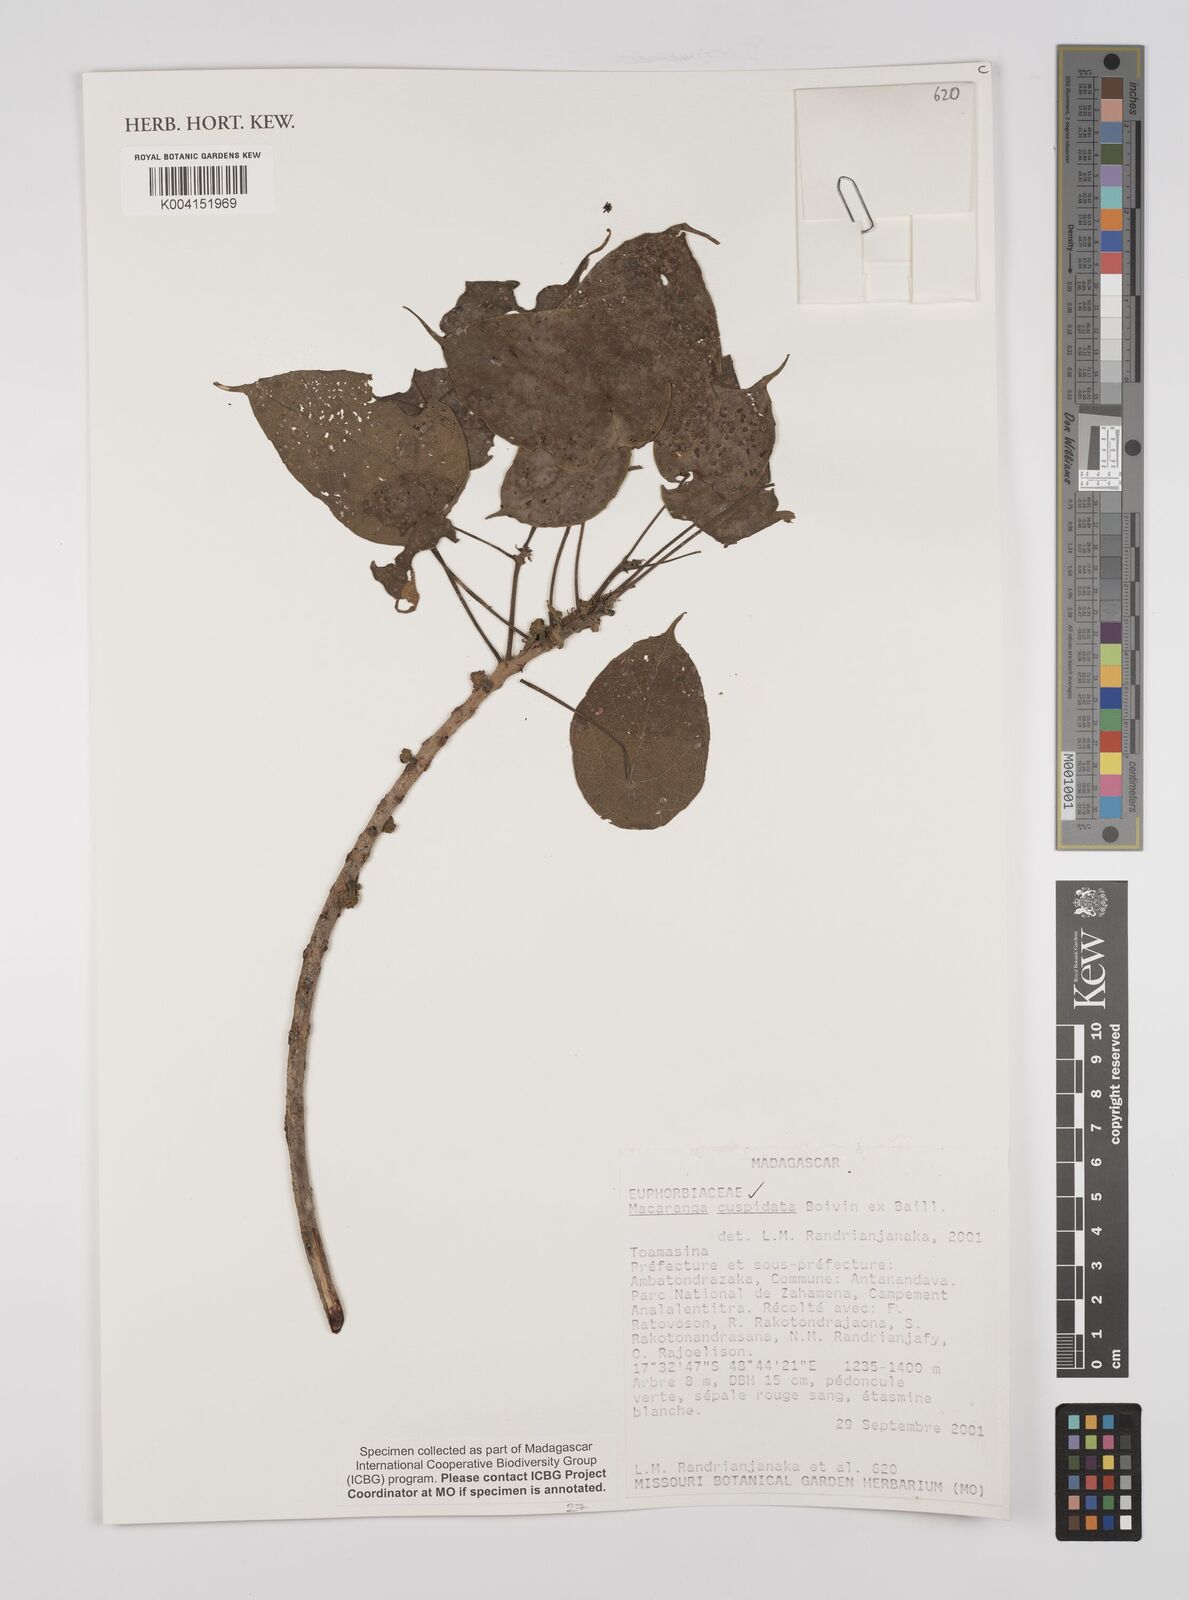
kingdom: Plantae
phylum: Tracheophyta
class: Magnoliopsida
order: Malpighiales
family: Euphorbiaceae
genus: Macaranga
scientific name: Macaranga cuspidata
